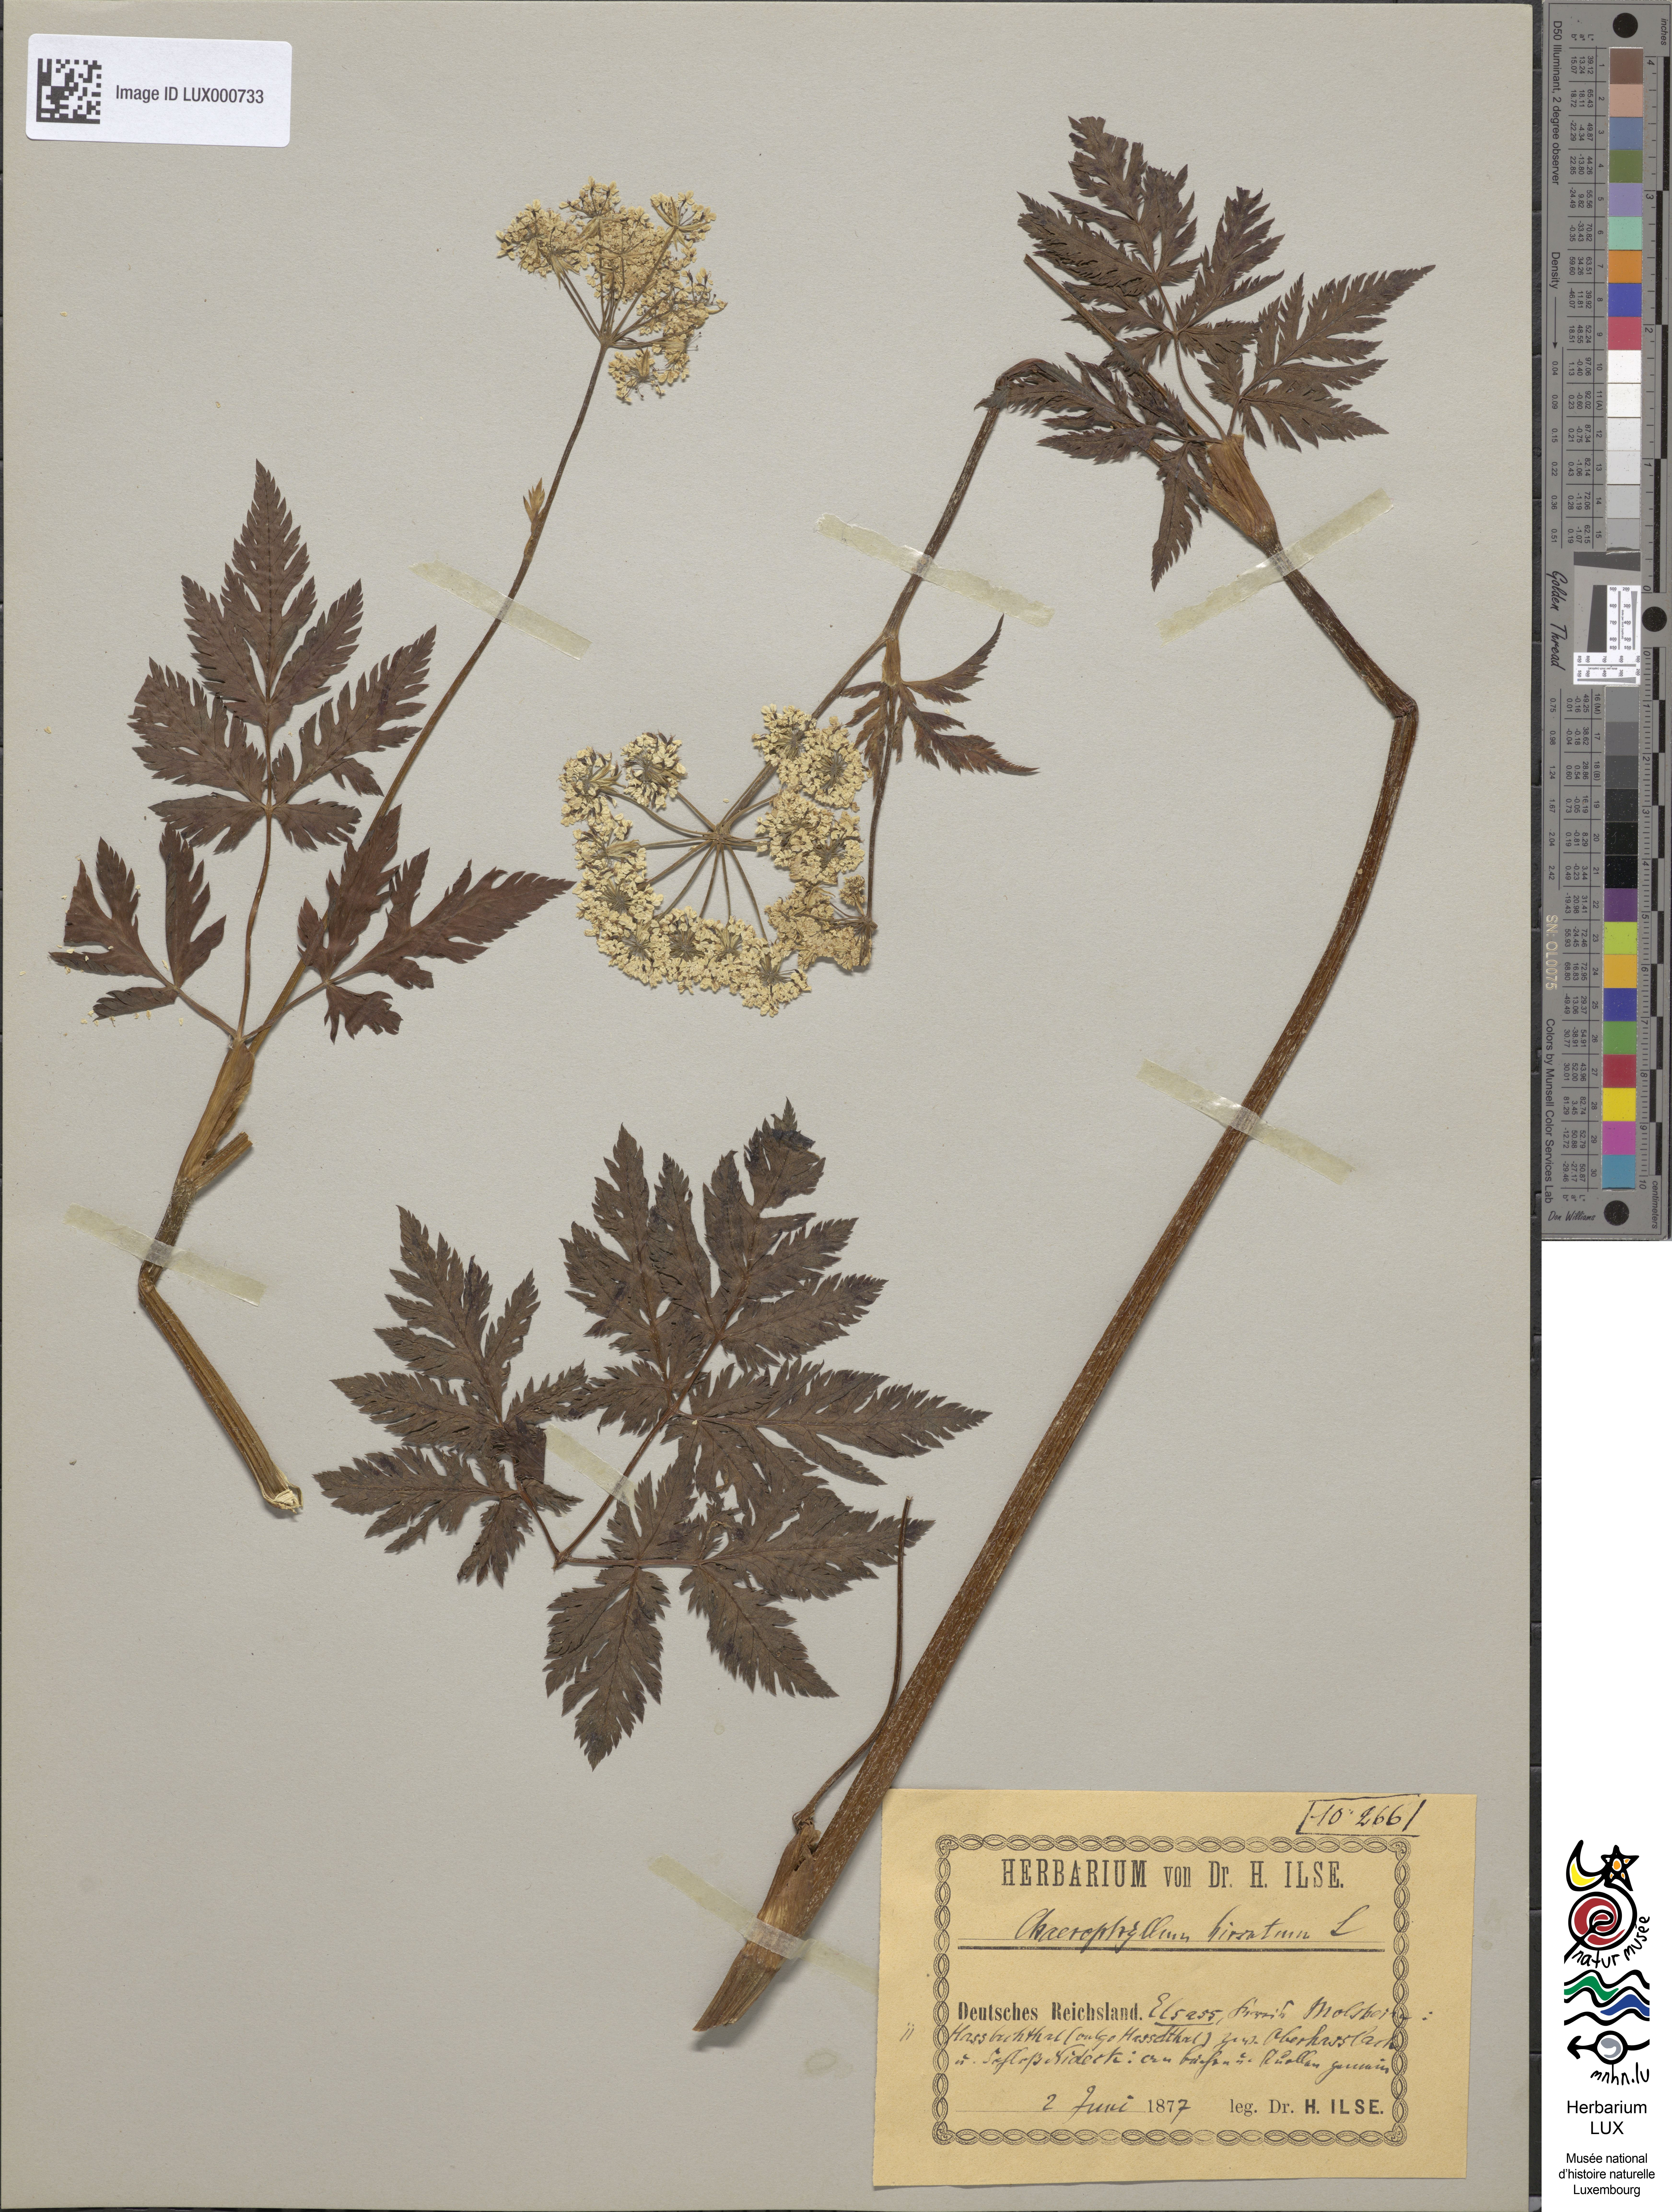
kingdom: Plantae
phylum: Tracheophyta
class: Magnoliopsida
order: Apiales
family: Apiaceae
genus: Chaerophyllum
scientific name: Chaerophyllum hirsutum
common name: Hairy chervil
